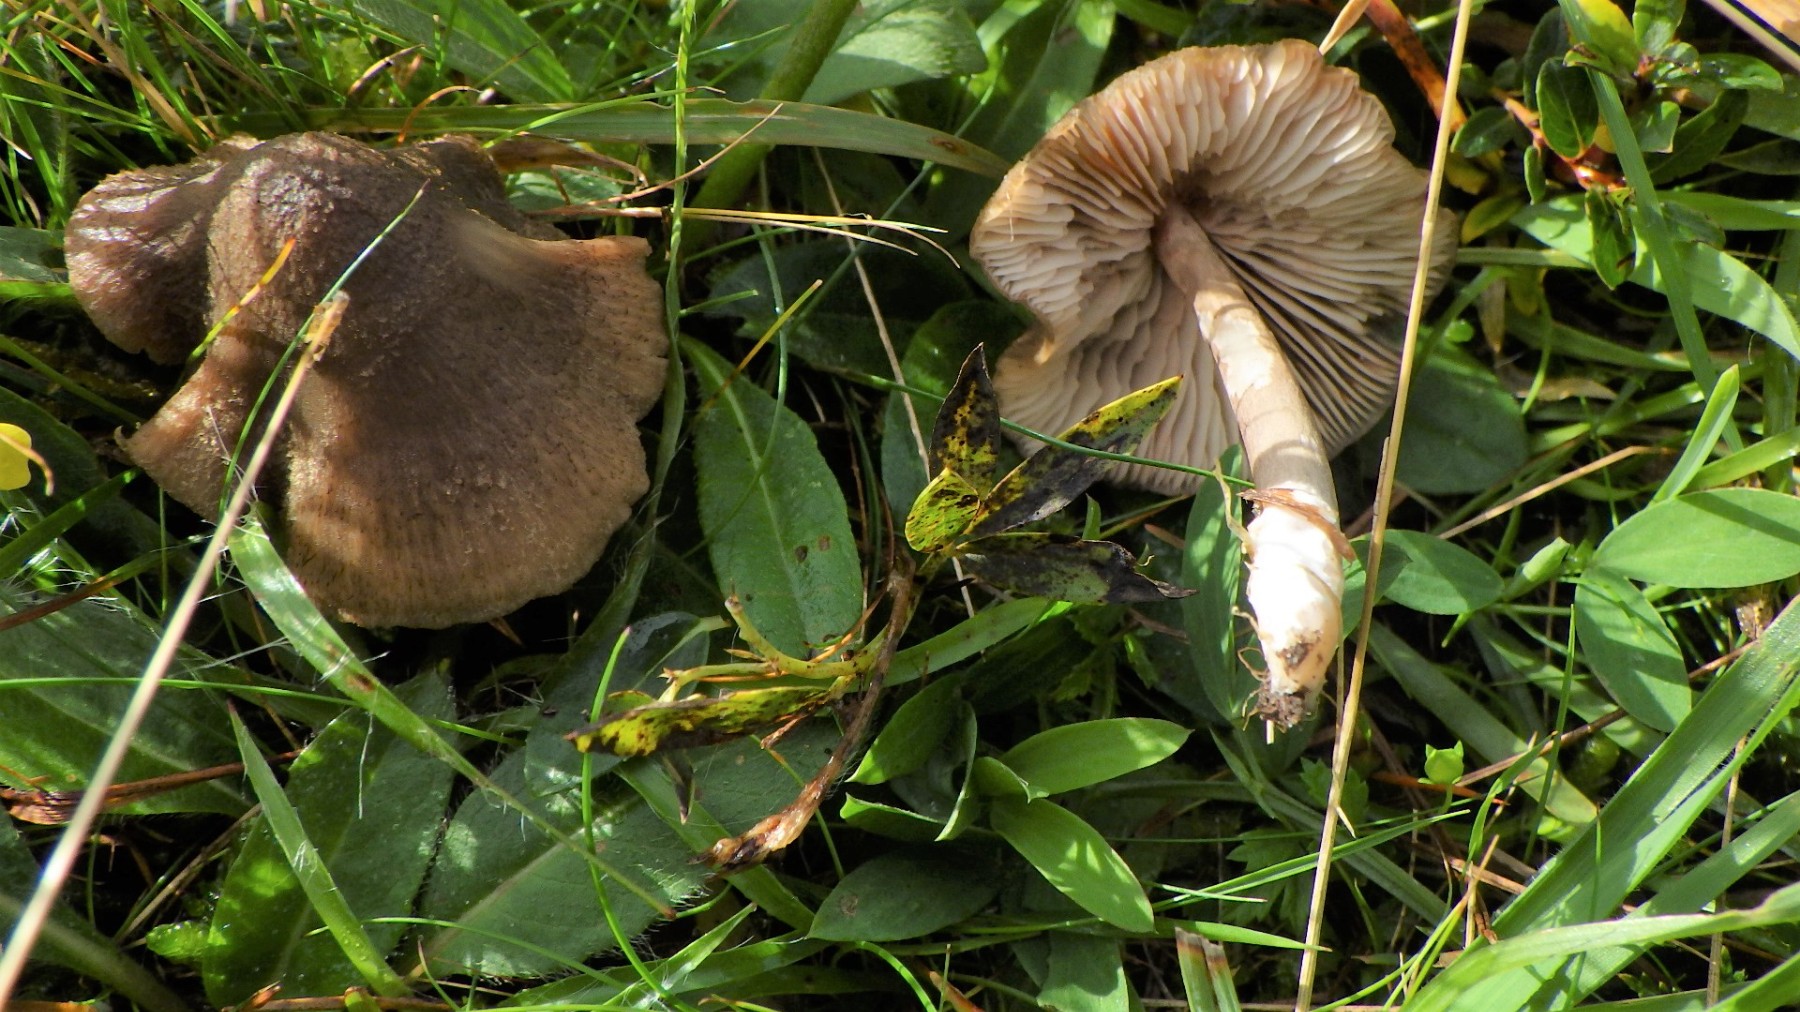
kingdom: Fungi
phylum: Basidiomycota
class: Agaricomycetes
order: Agaricales
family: Entolomataceae
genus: Entoloma
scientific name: Entoloma
